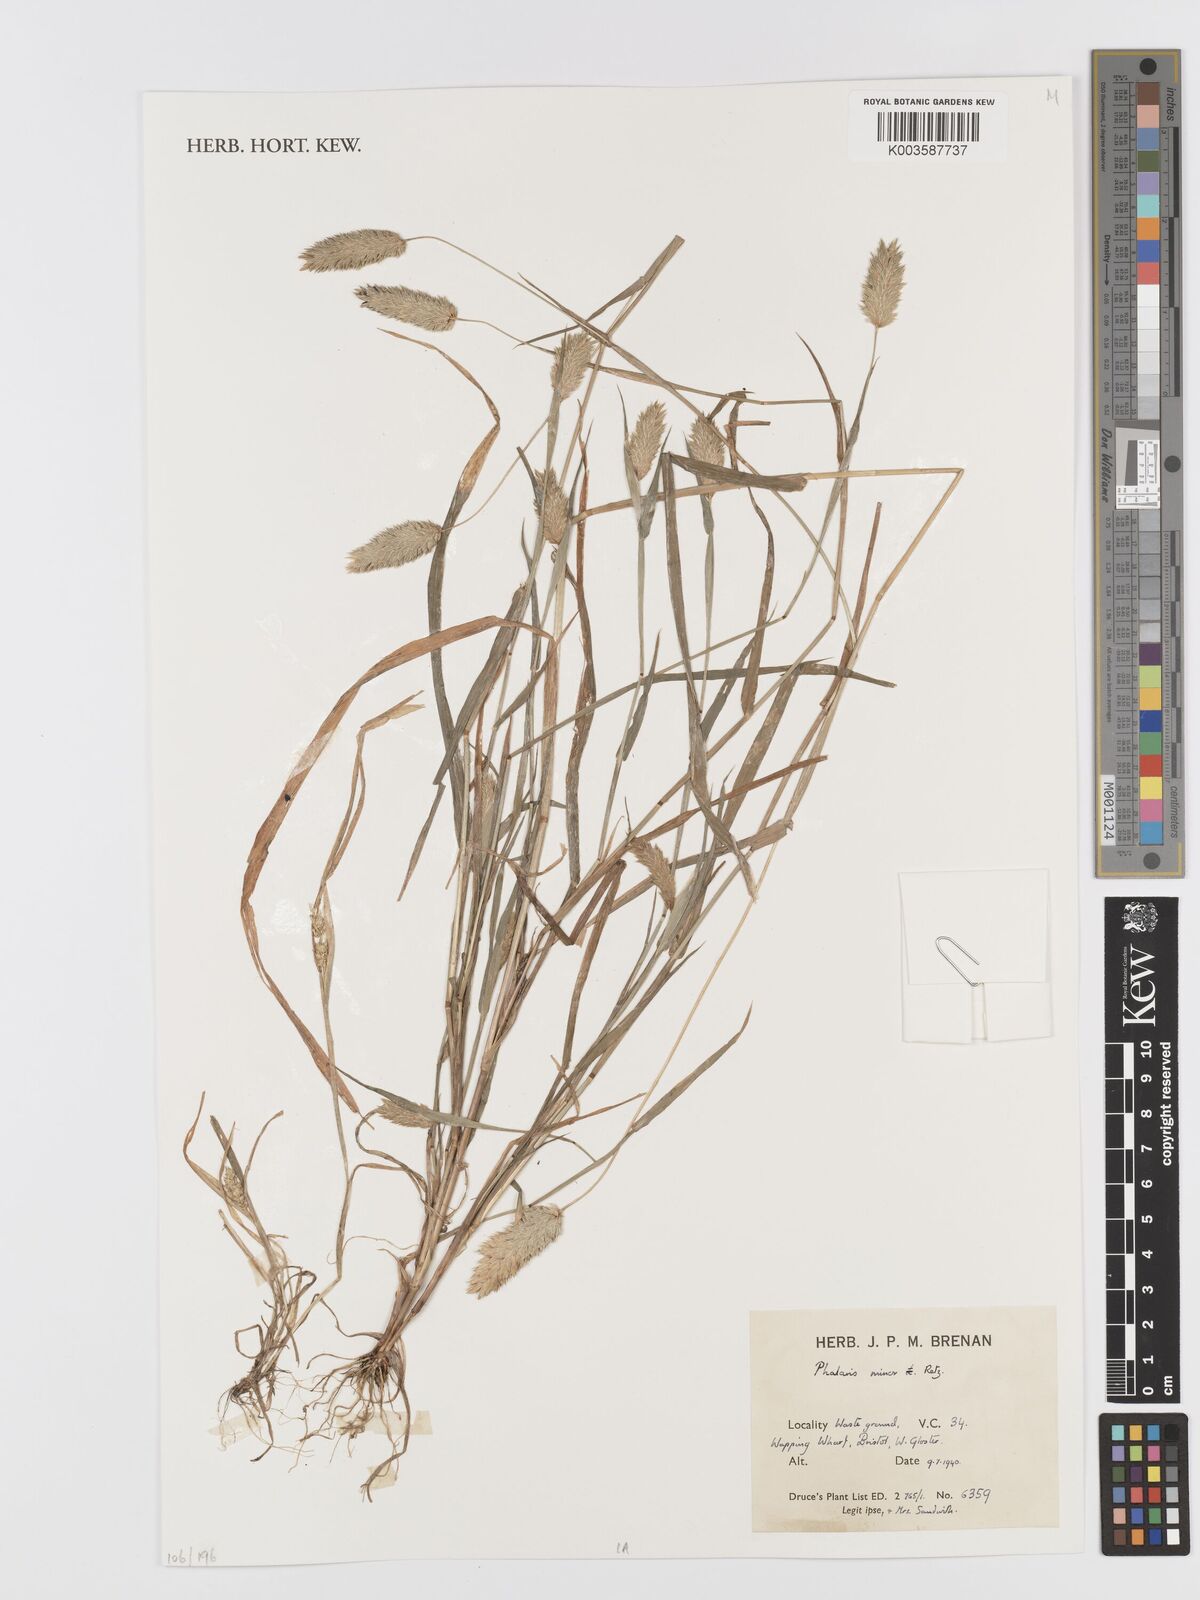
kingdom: Plantae
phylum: Tracheophyta
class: Liliopsida
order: Poales
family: Poaceae
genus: Phalaris
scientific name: Phalaris minor
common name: Littleseed canarygrass
